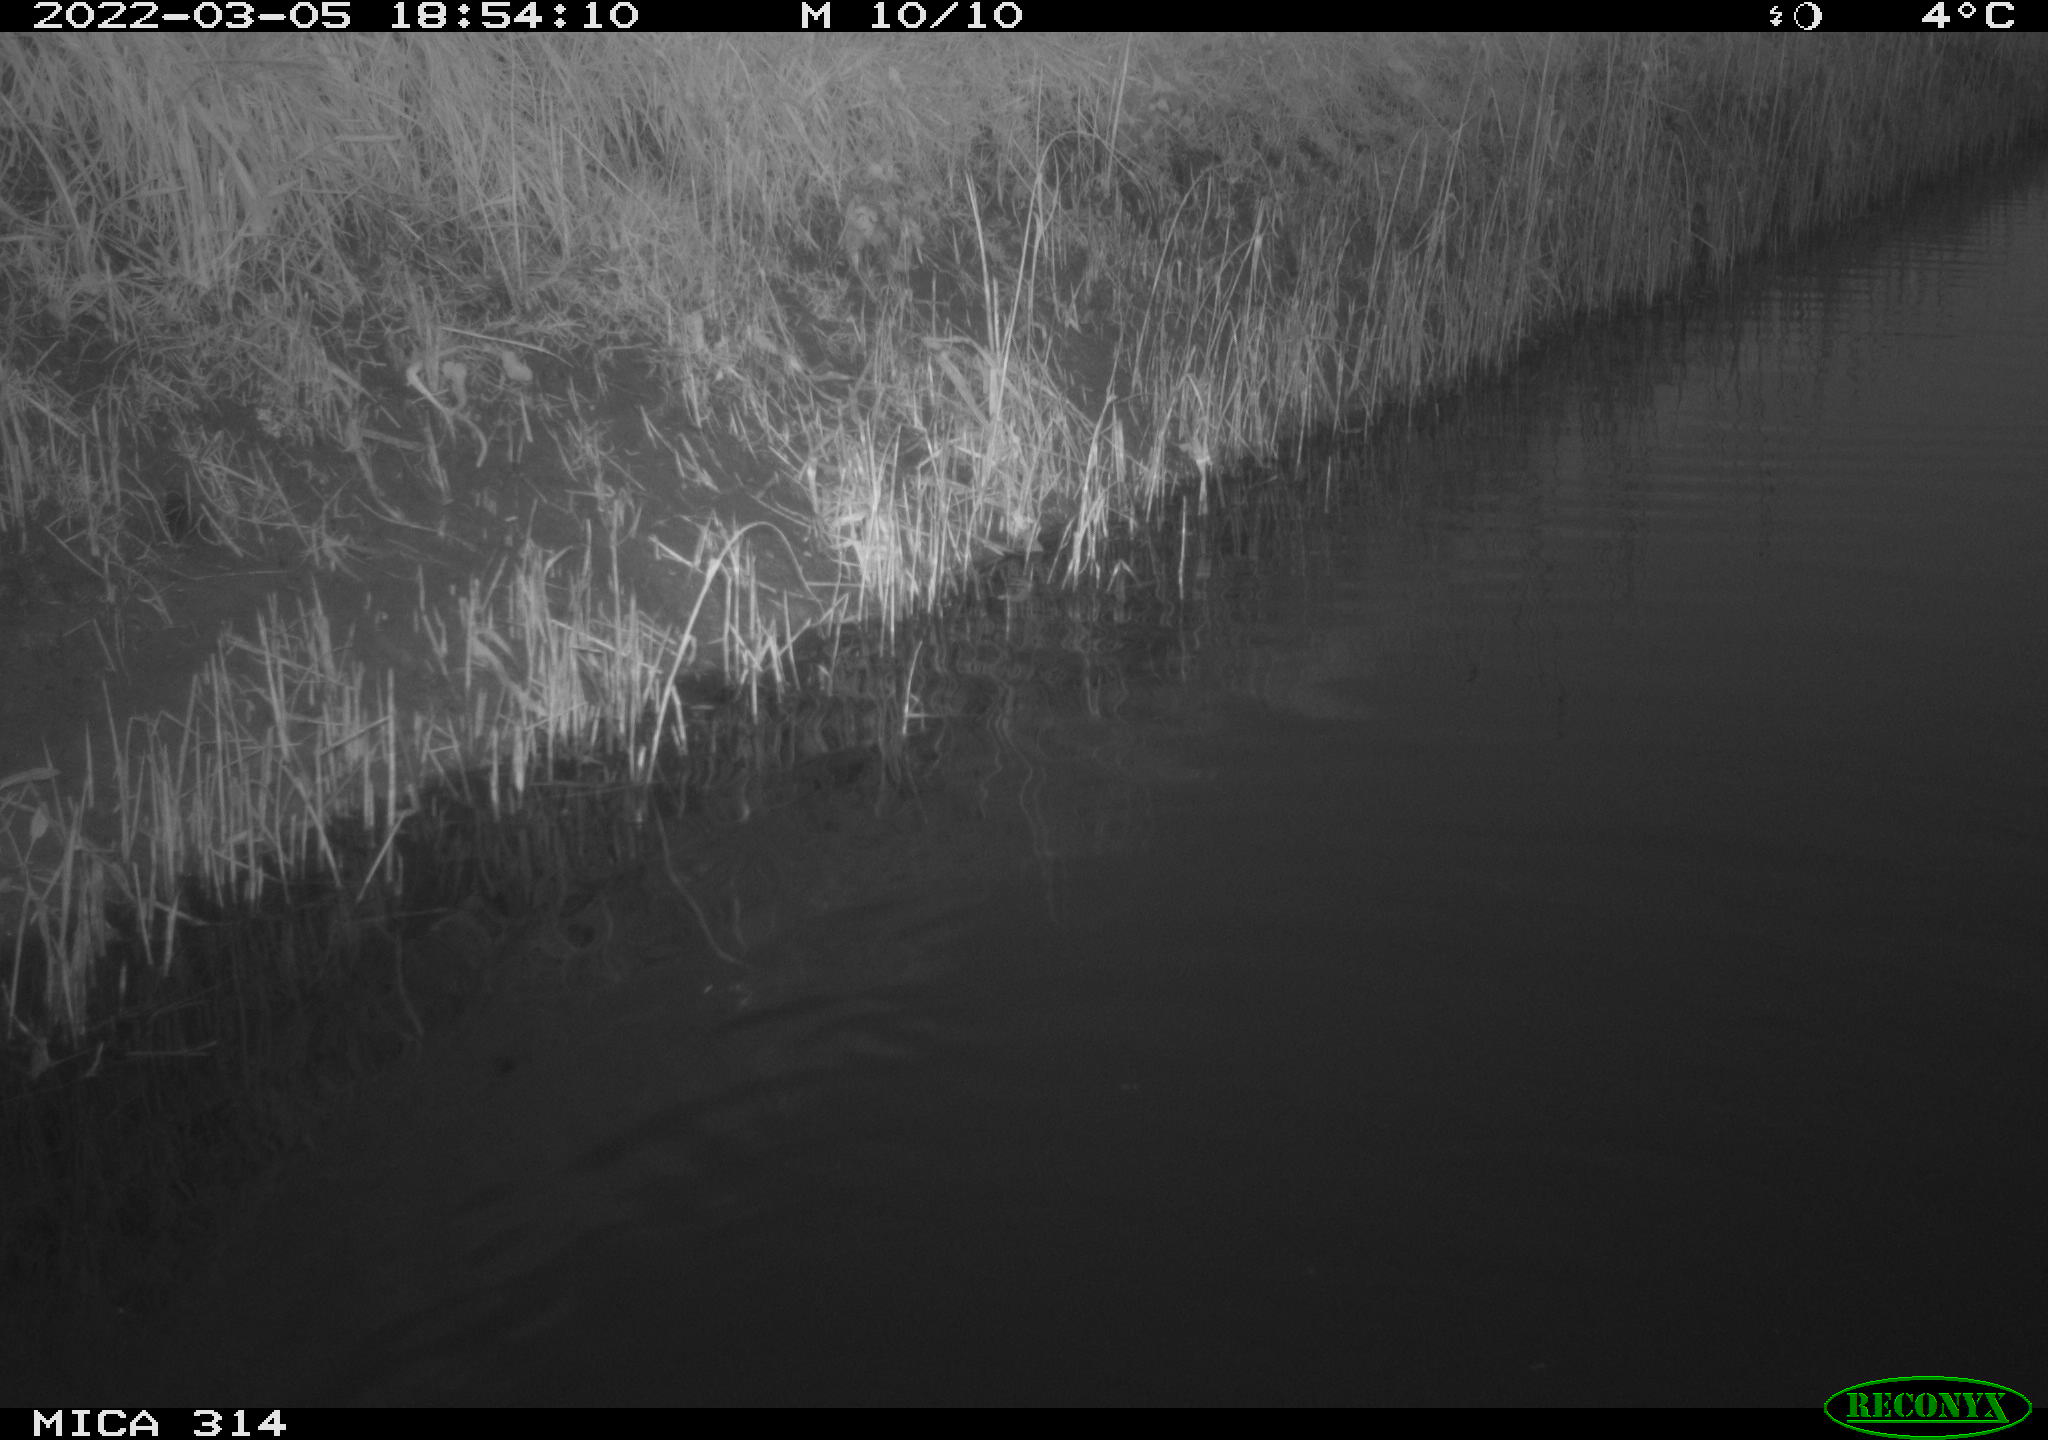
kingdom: Animalia
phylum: Chordata
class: Aves
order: Gruiformes
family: Rallidae
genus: Gallinula
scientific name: Gallinula chloropus
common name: Common moorhen
